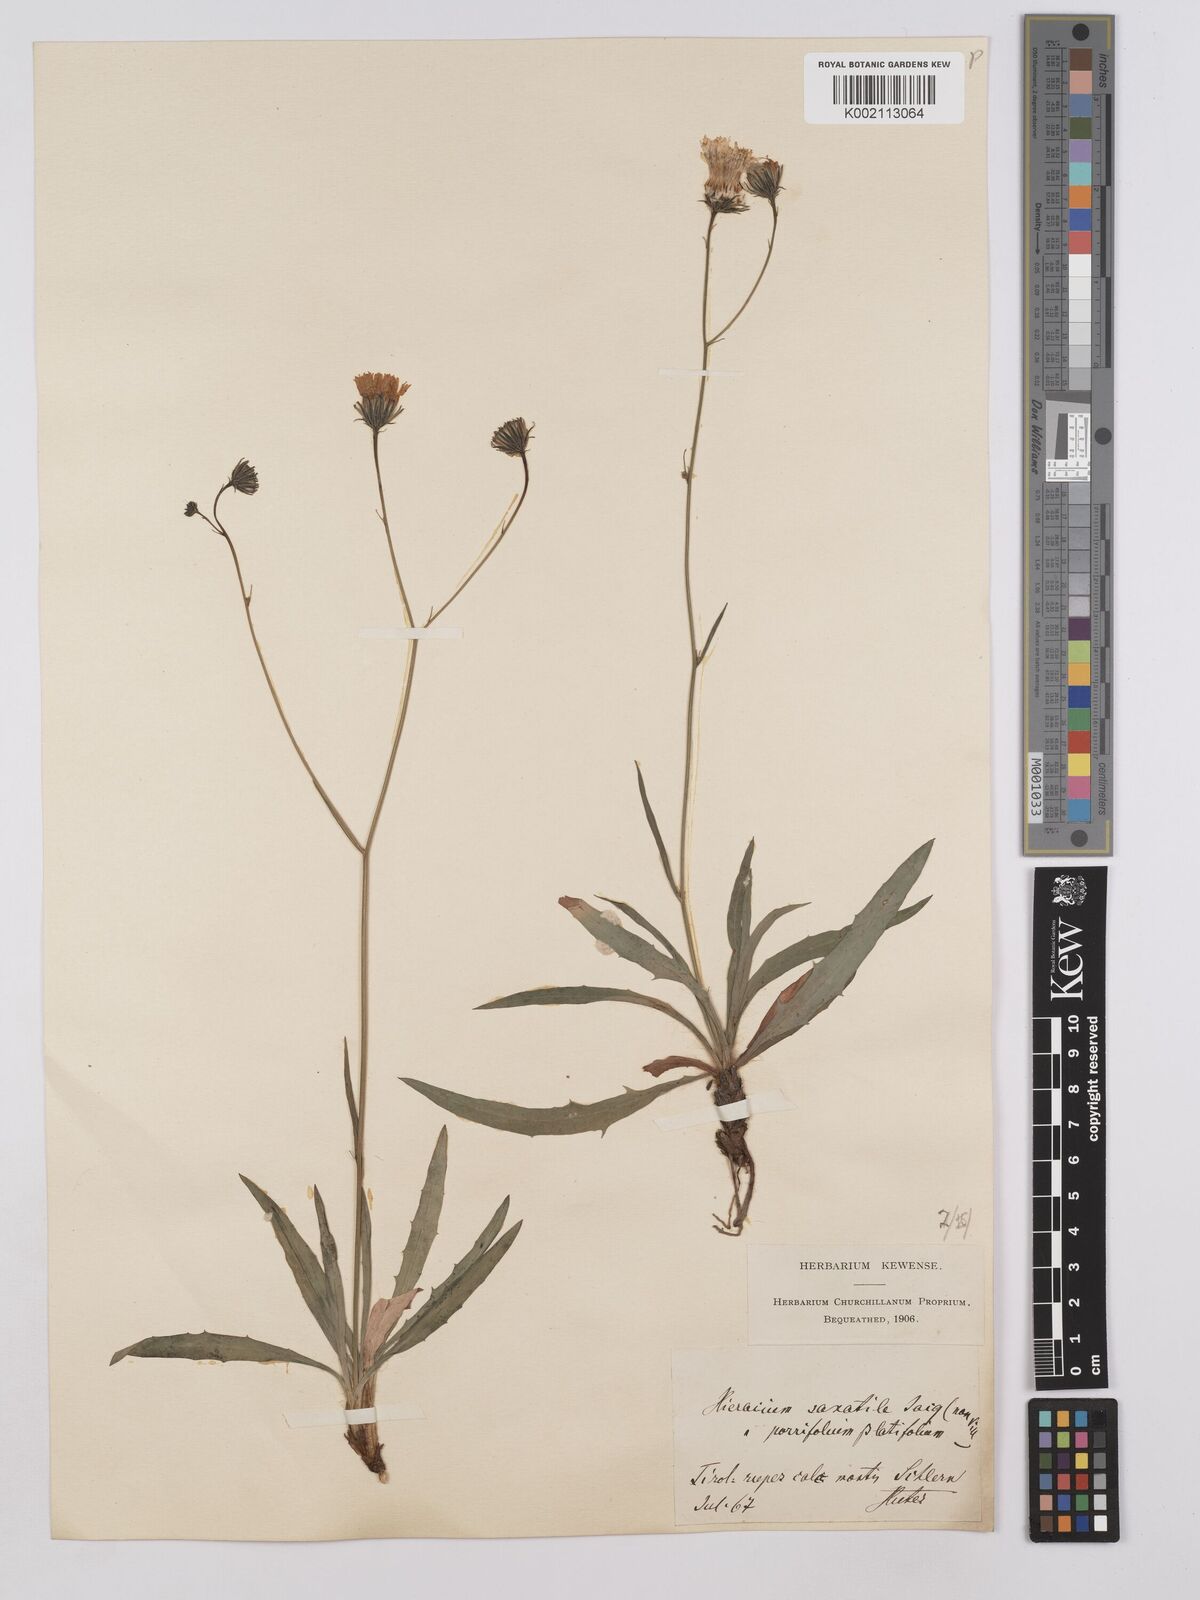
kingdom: Plantae
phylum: Tracheophyta
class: Magnoliopsida
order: Asterales
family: Asteraceae
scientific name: Asteraceae
